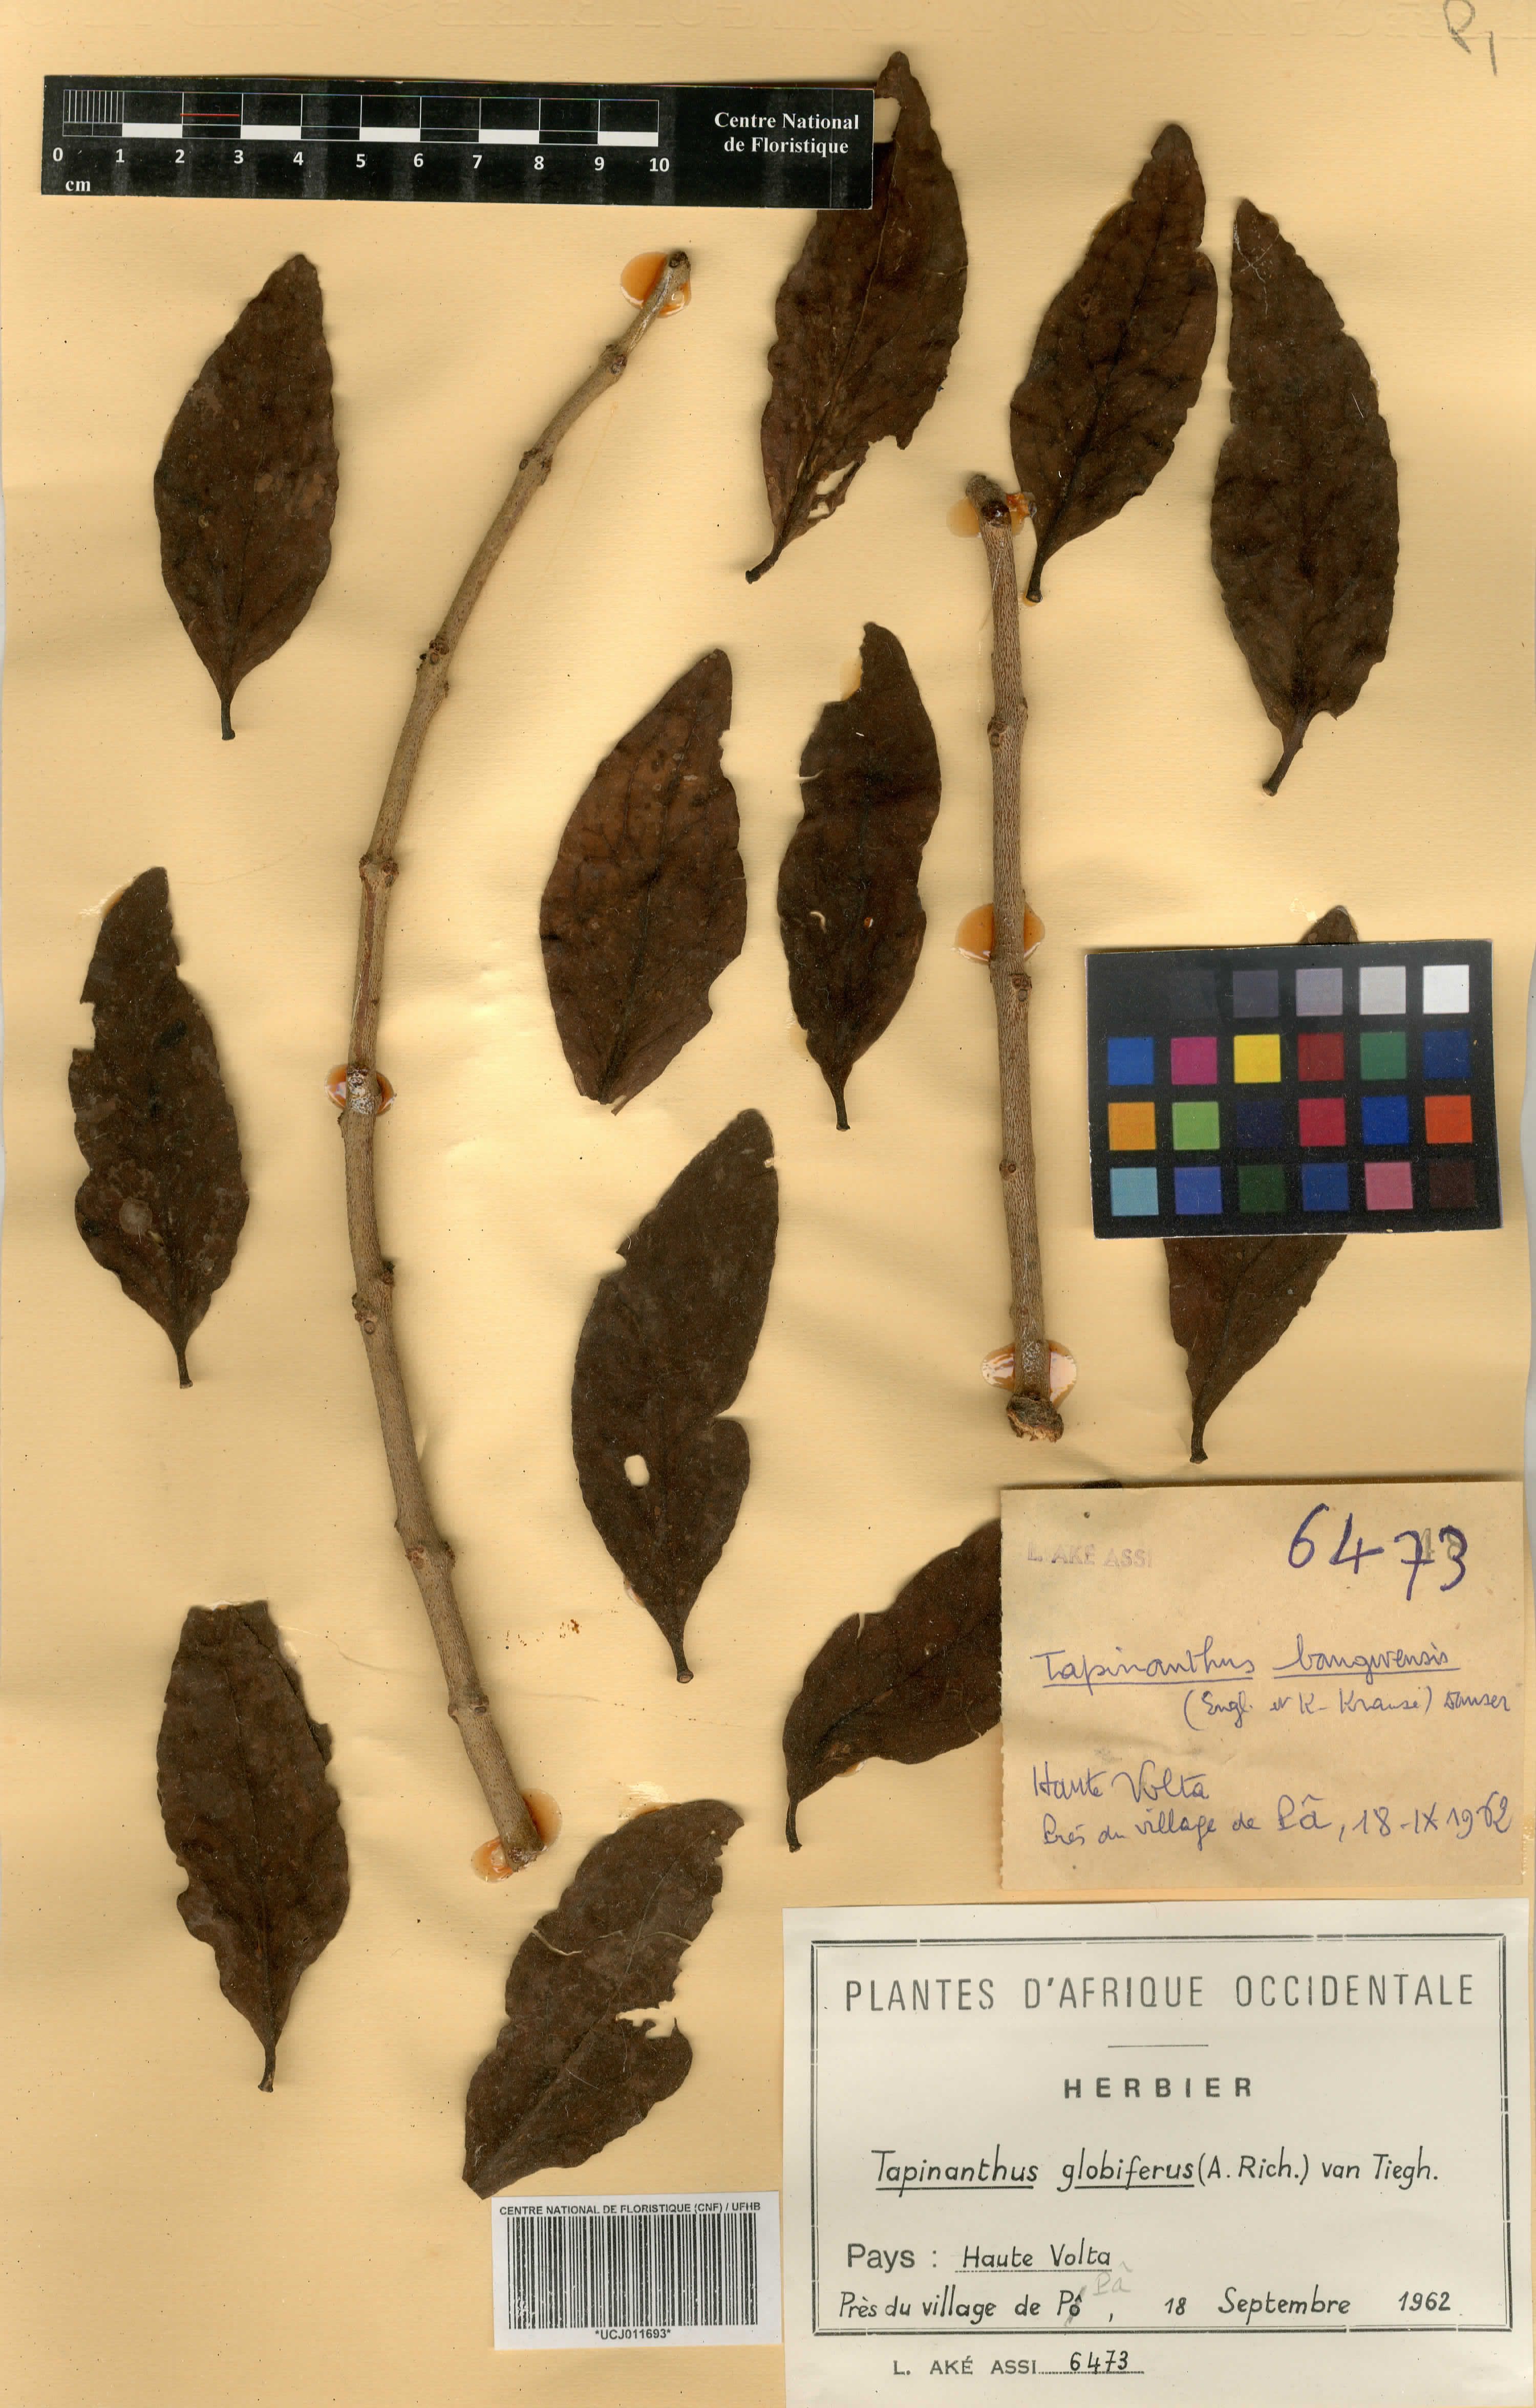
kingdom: Plantae
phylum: Tracheophyta
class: Magnoliopsida
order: Santalales
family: Loranthaceae
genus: Tapinanthus
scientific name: Tapinanthus globiferus
